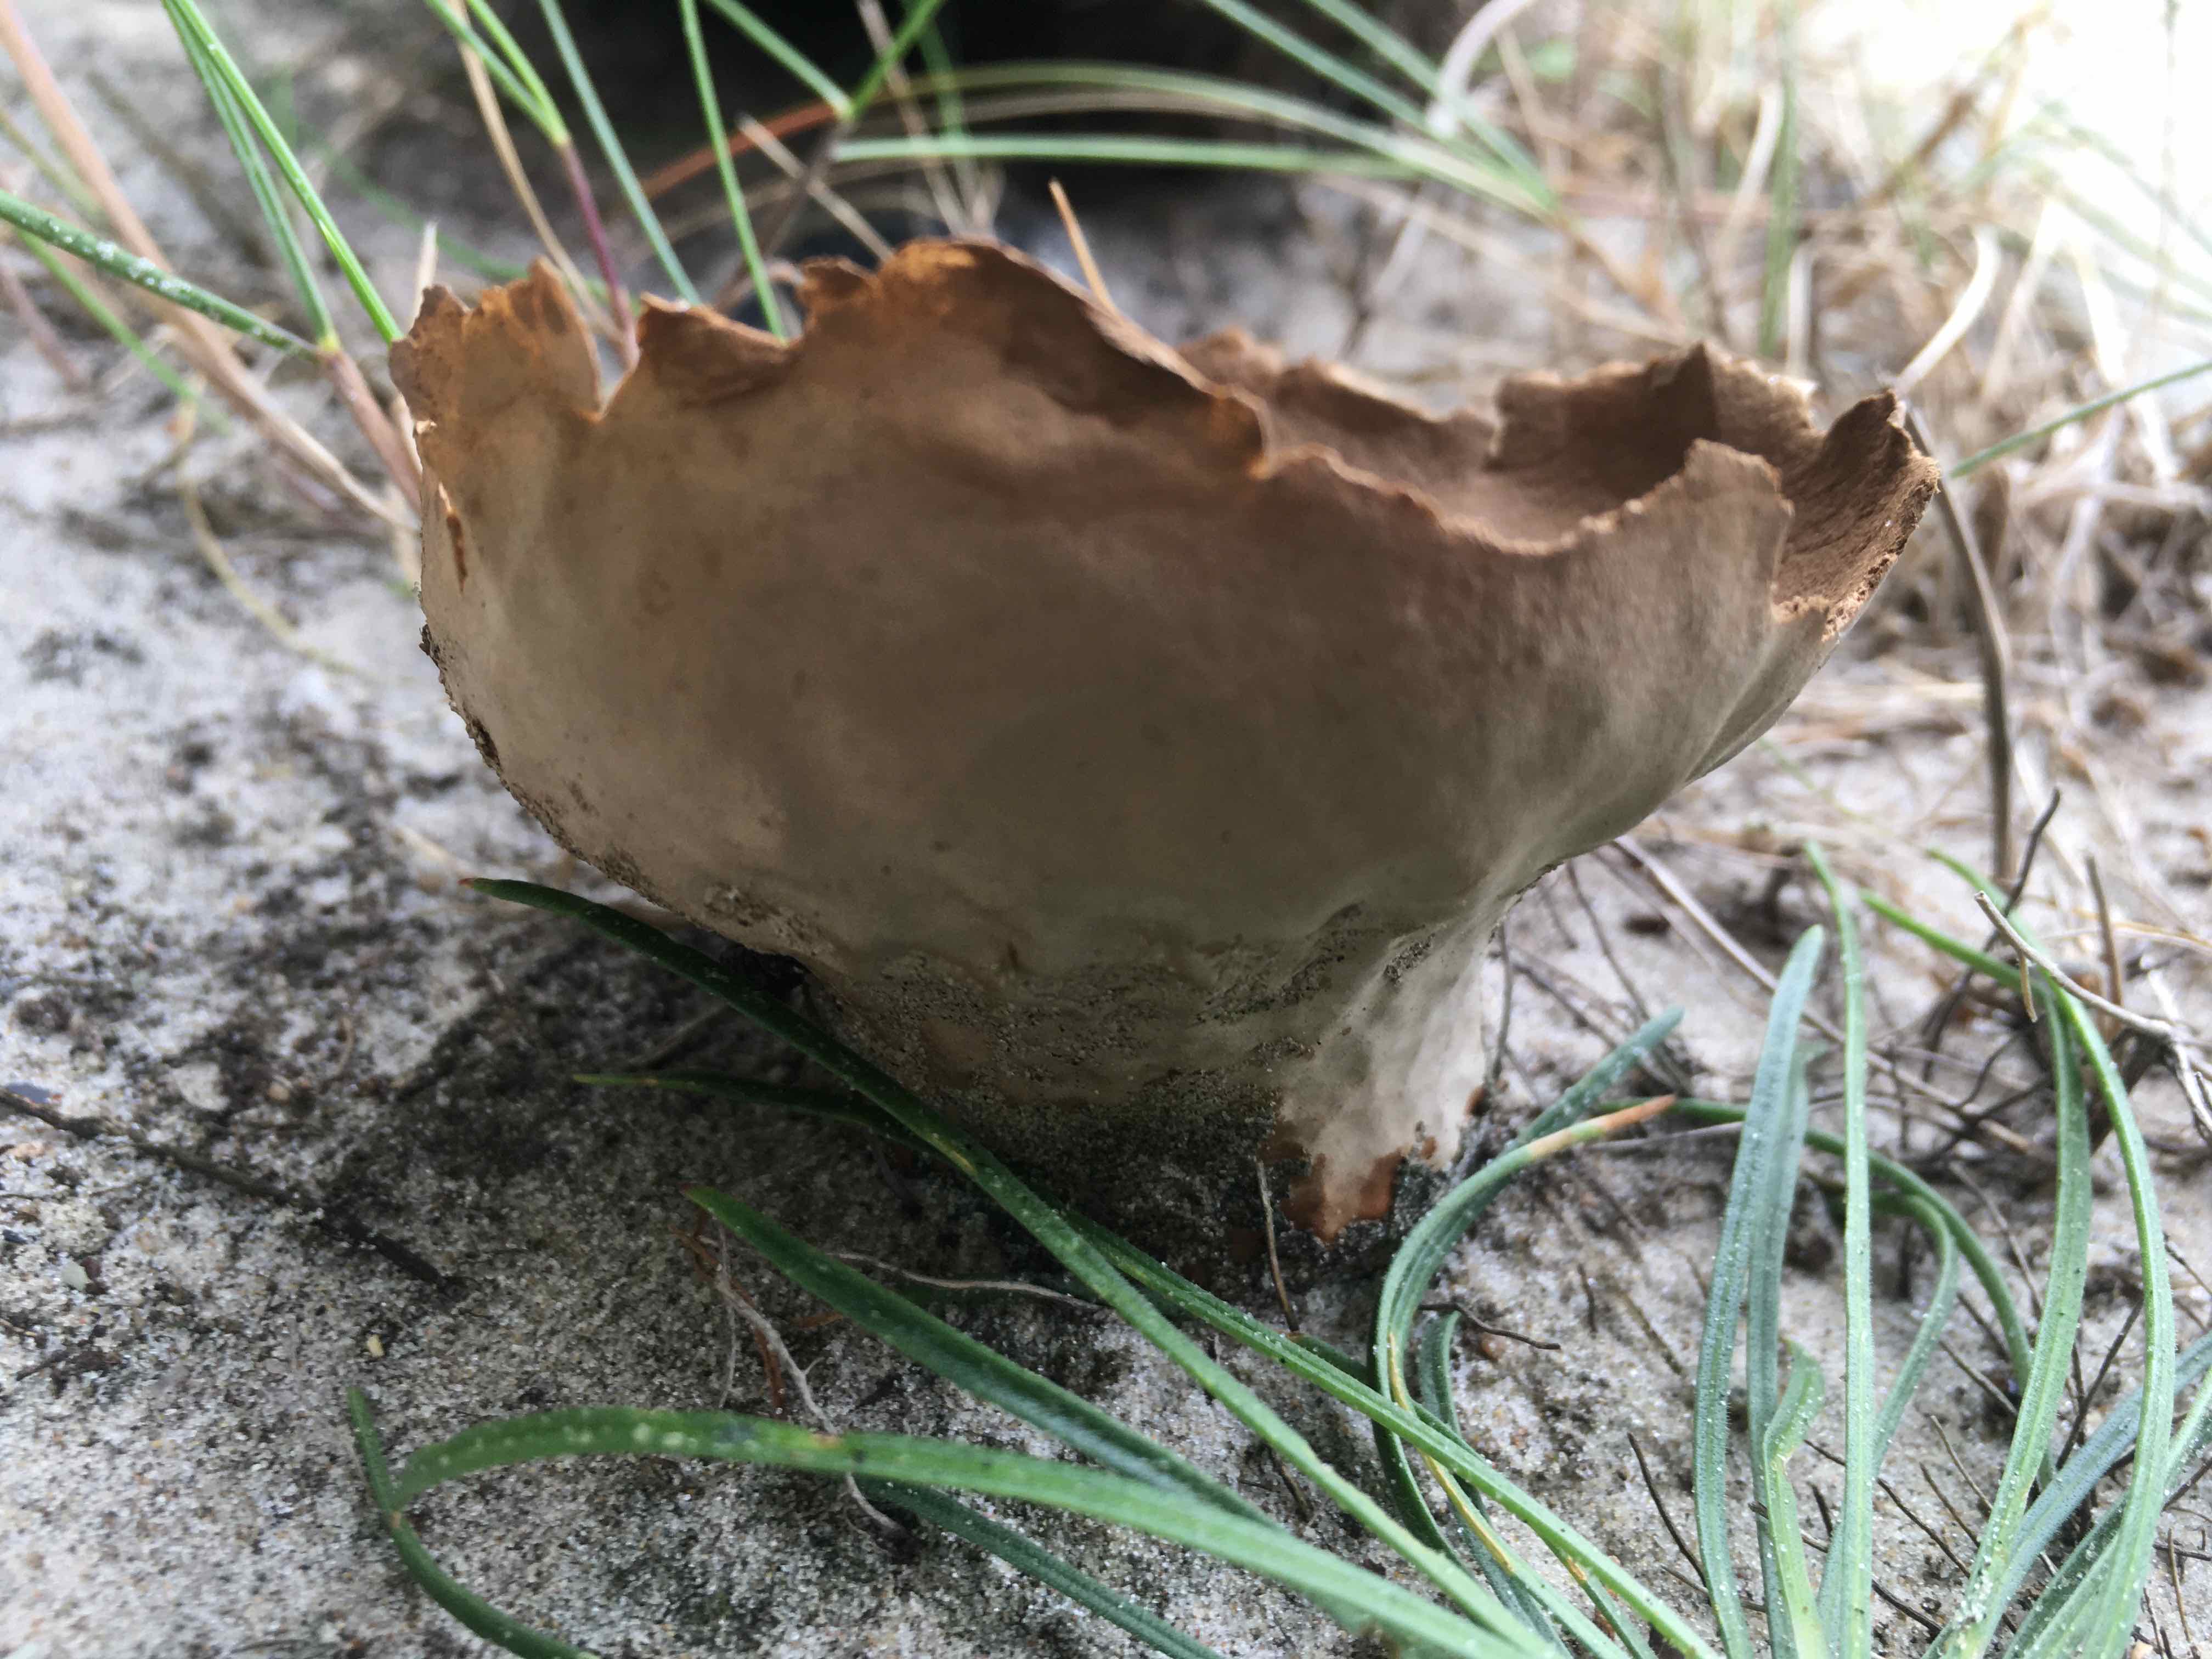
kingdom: Fungi
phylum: Basidiomycota
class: Agaricomycetes
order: Agaricales
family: Lycoperdaceae
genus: Bovistella
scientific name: Bovistella utriformis
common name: skællet støvbold
